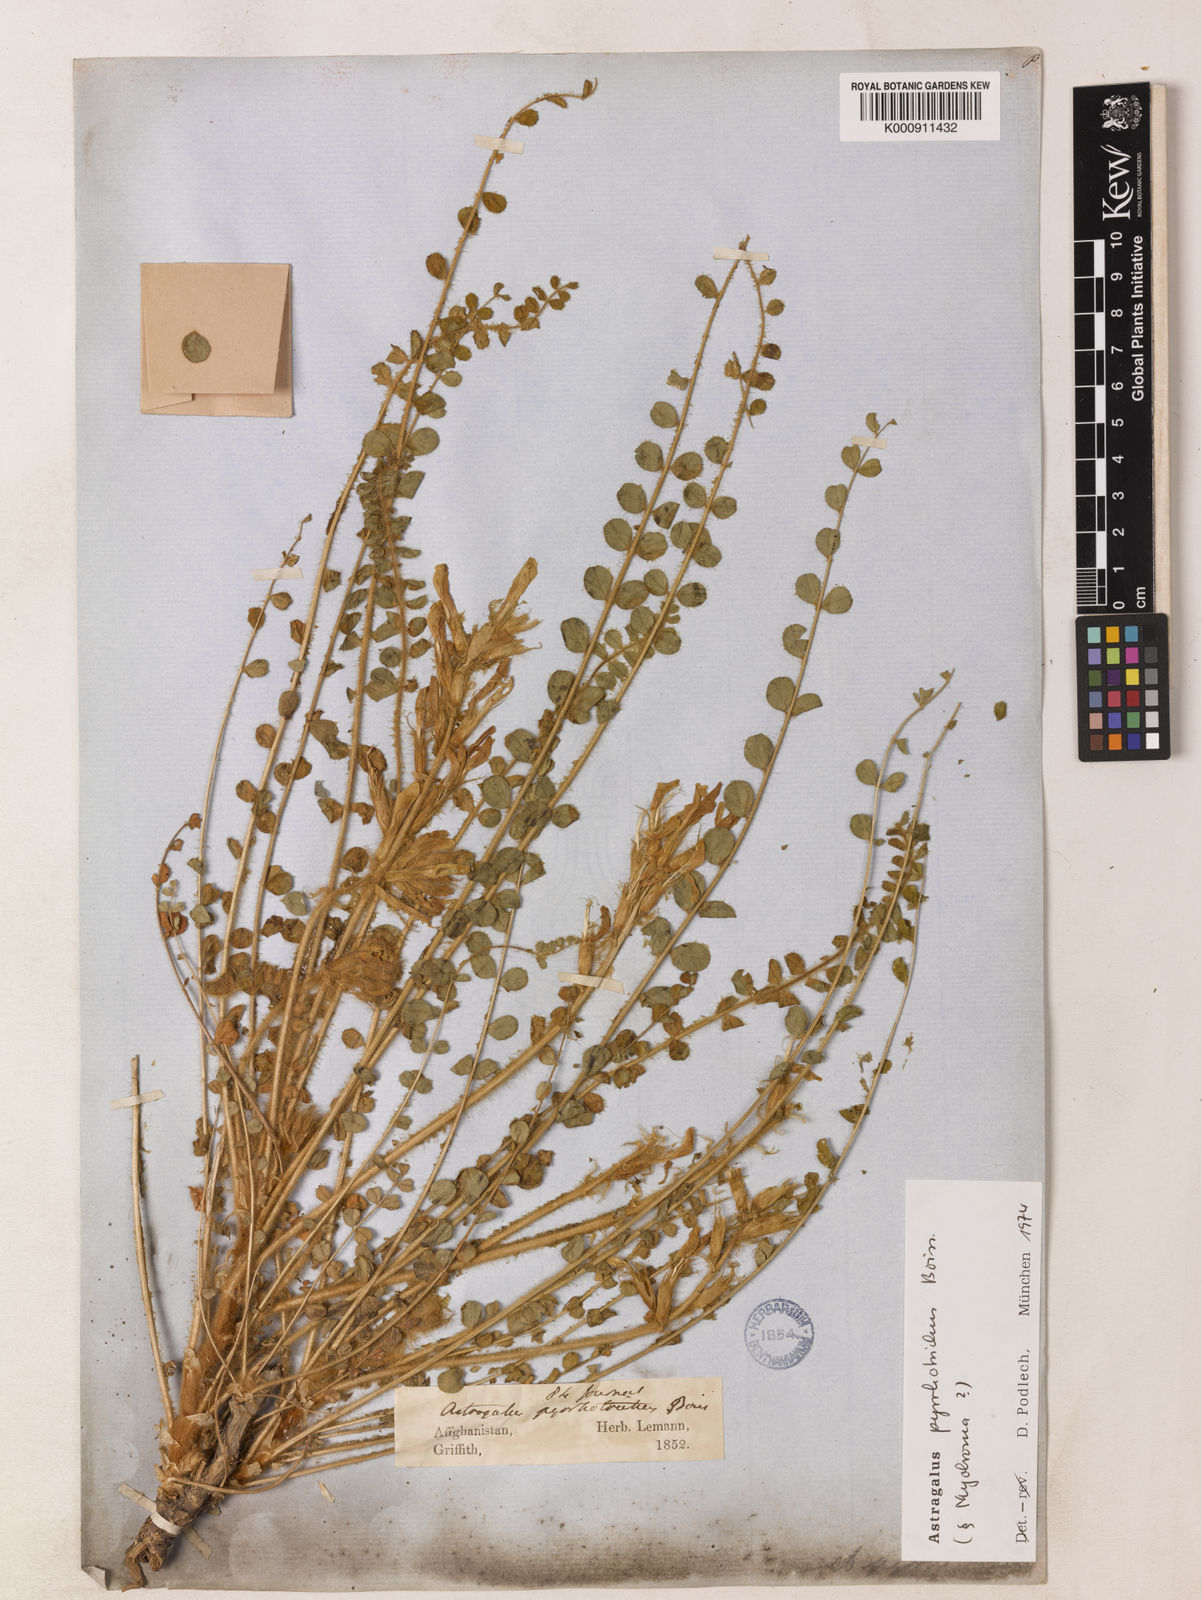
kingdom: Plantae
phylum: Tracheophyta
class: Magnoliopsida
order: Fabales
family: Fabaceae
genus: Astragalus
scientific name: Astragalus pyrrhotrichus
